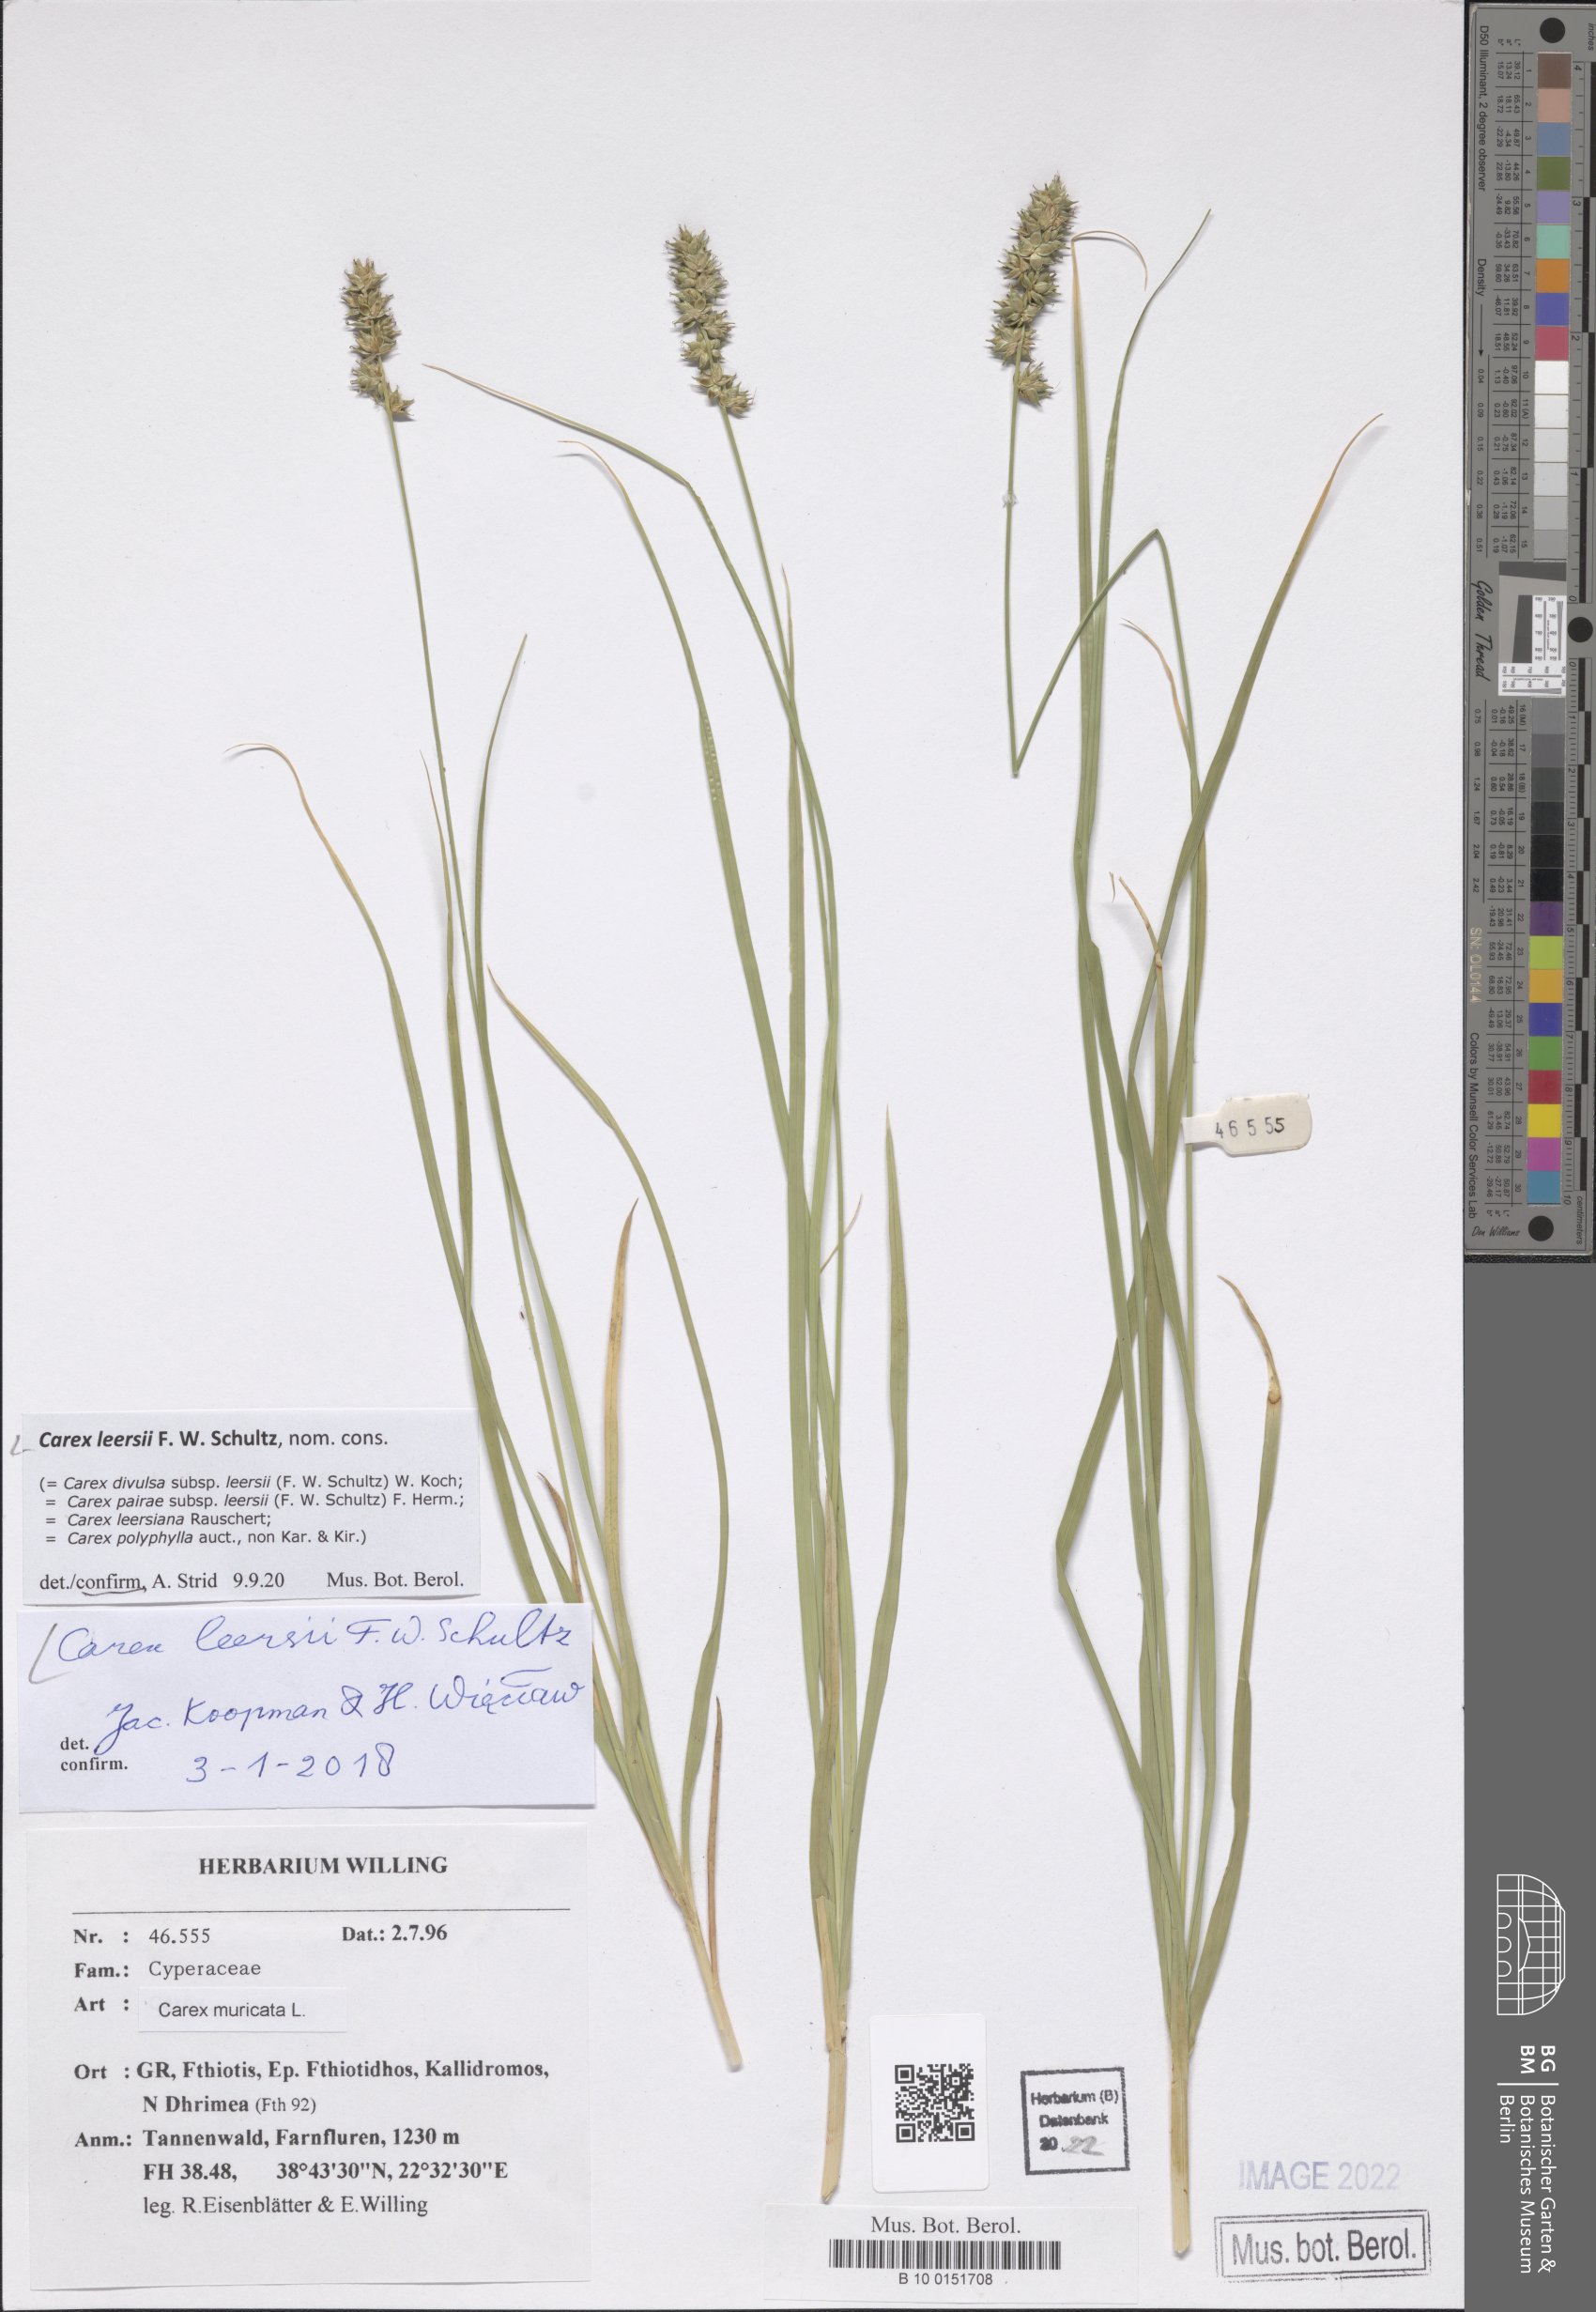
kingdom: Plantae
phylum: Tracheophyta
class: Liliopsida
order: Poales
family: Cyperaceae
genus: Carex
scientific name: Carex leersii
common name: Leers' sedge
